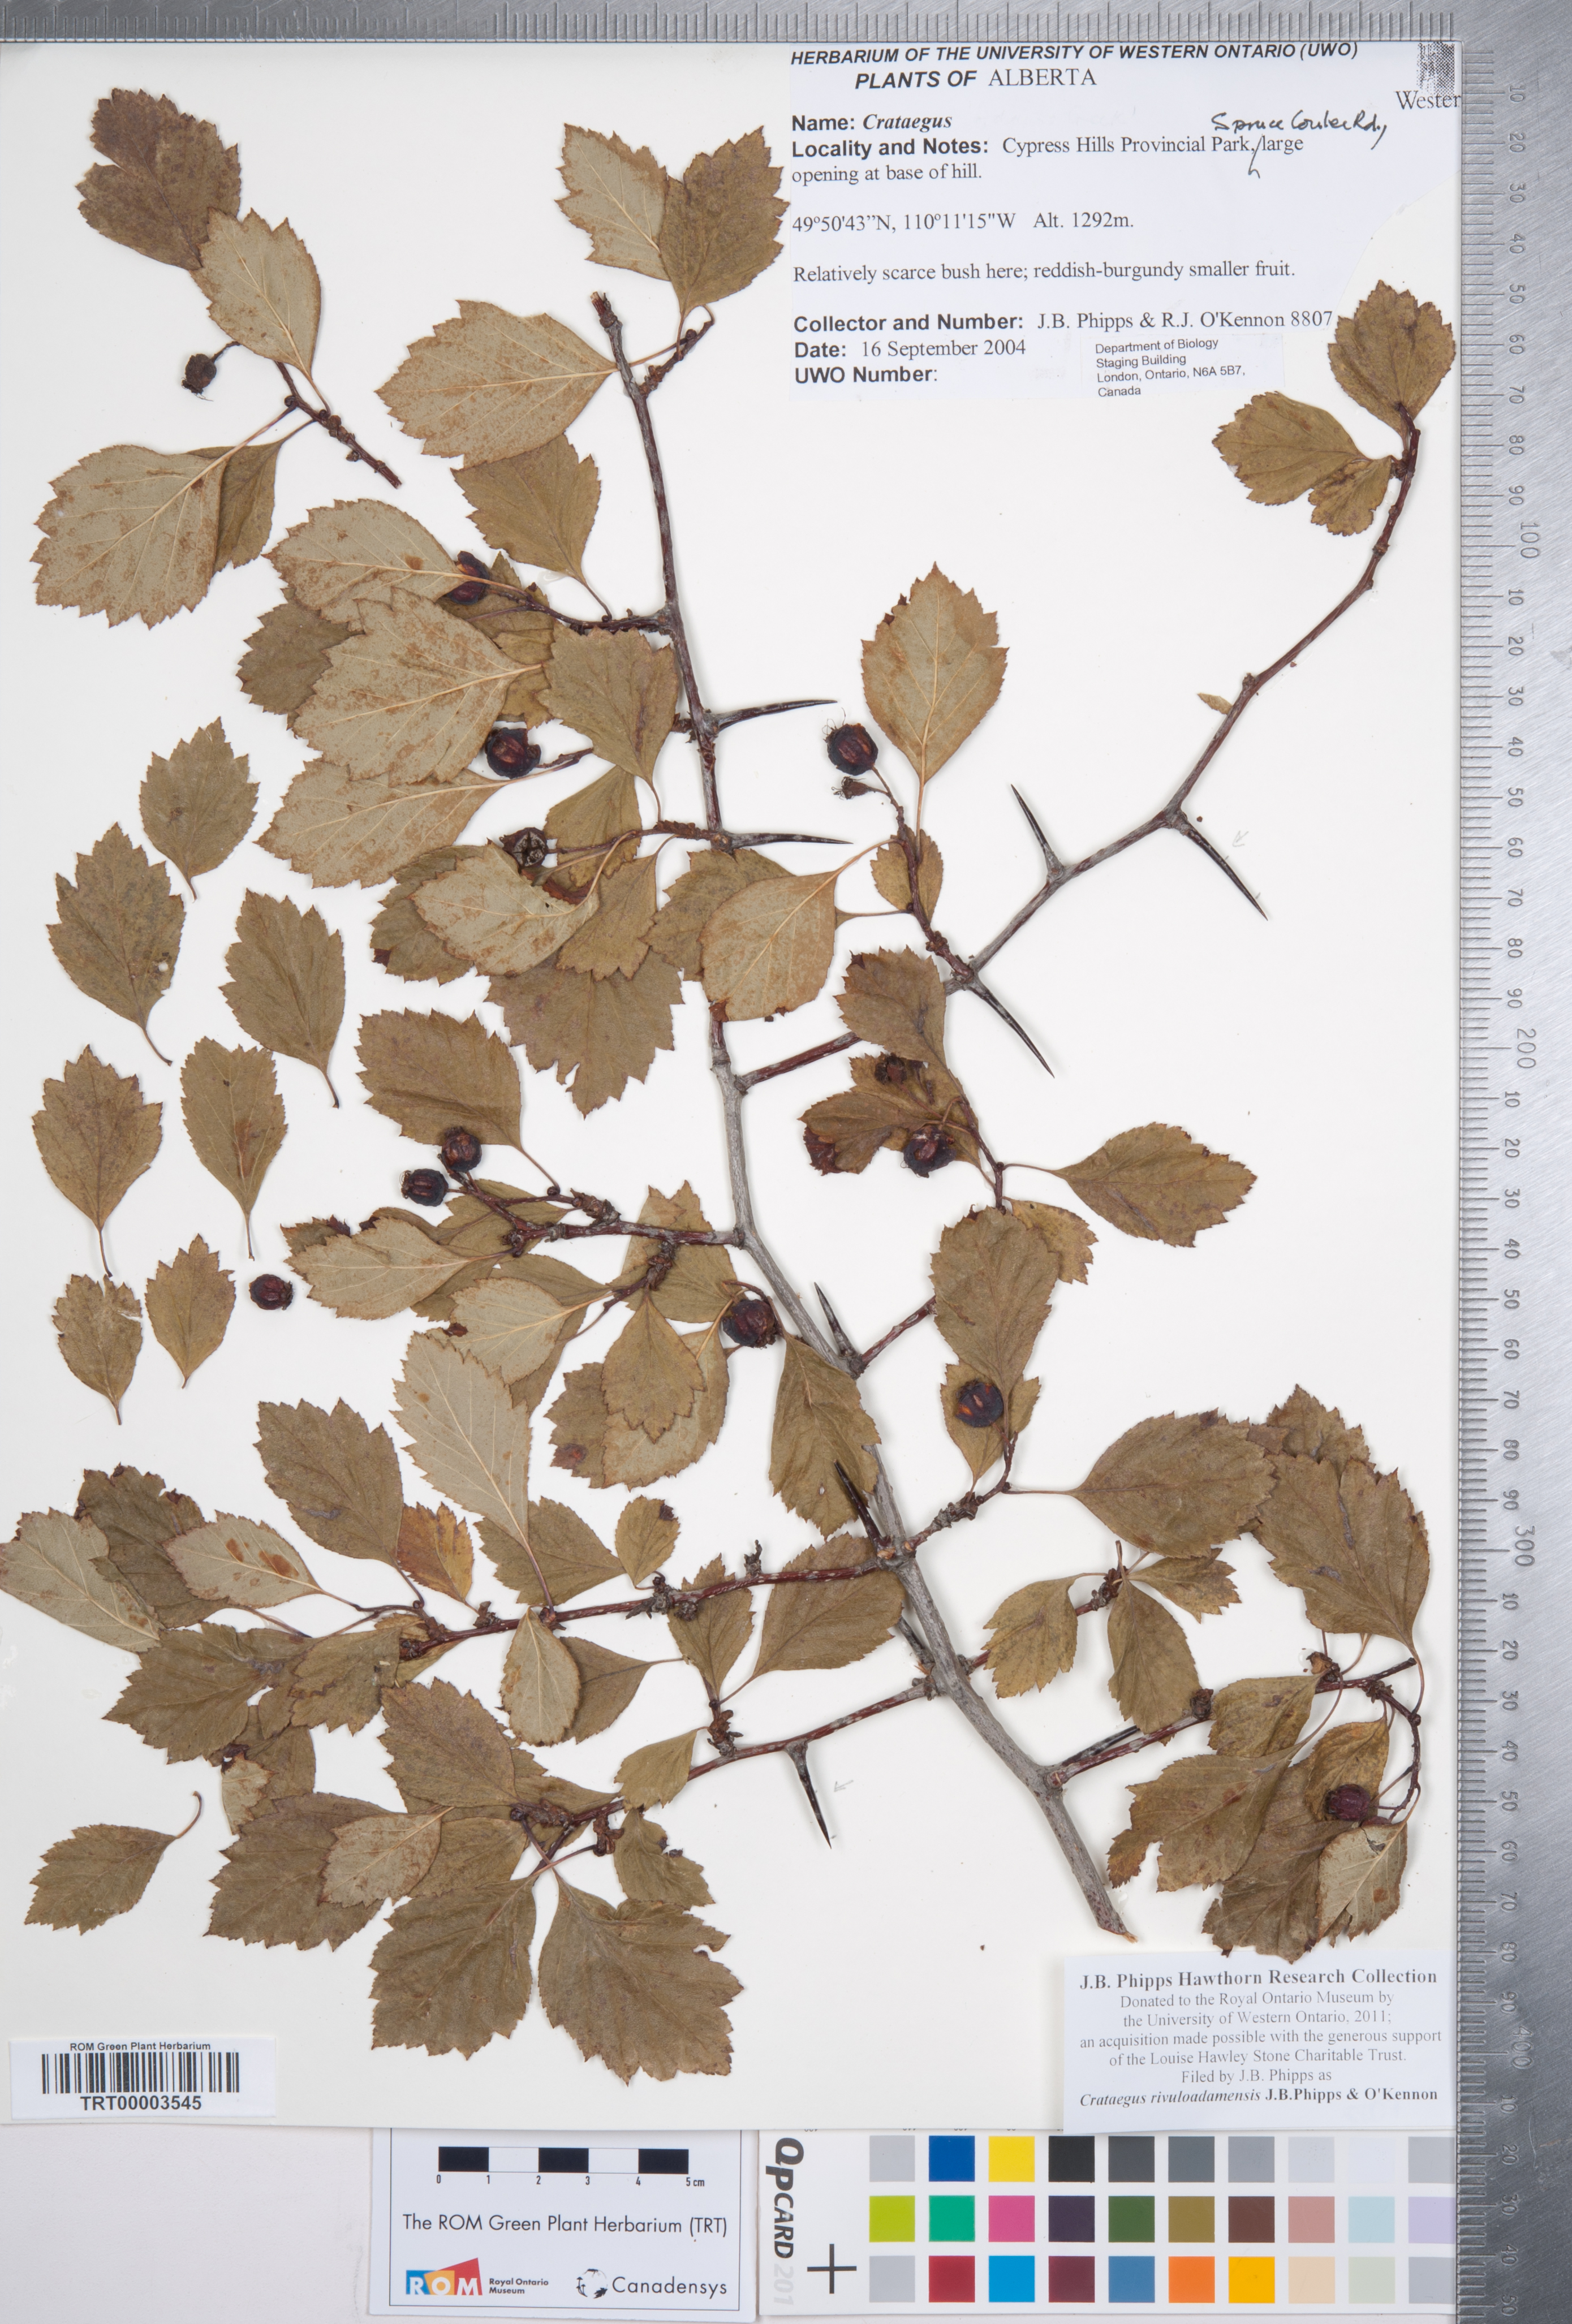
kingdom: Plantae
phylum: Tracheophyta
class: Magnoliopsida
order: Rosales
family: Rosaceae
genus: Crataegus
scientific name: Crataegus rivuloadamensis
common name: Adams creek hawthorn
